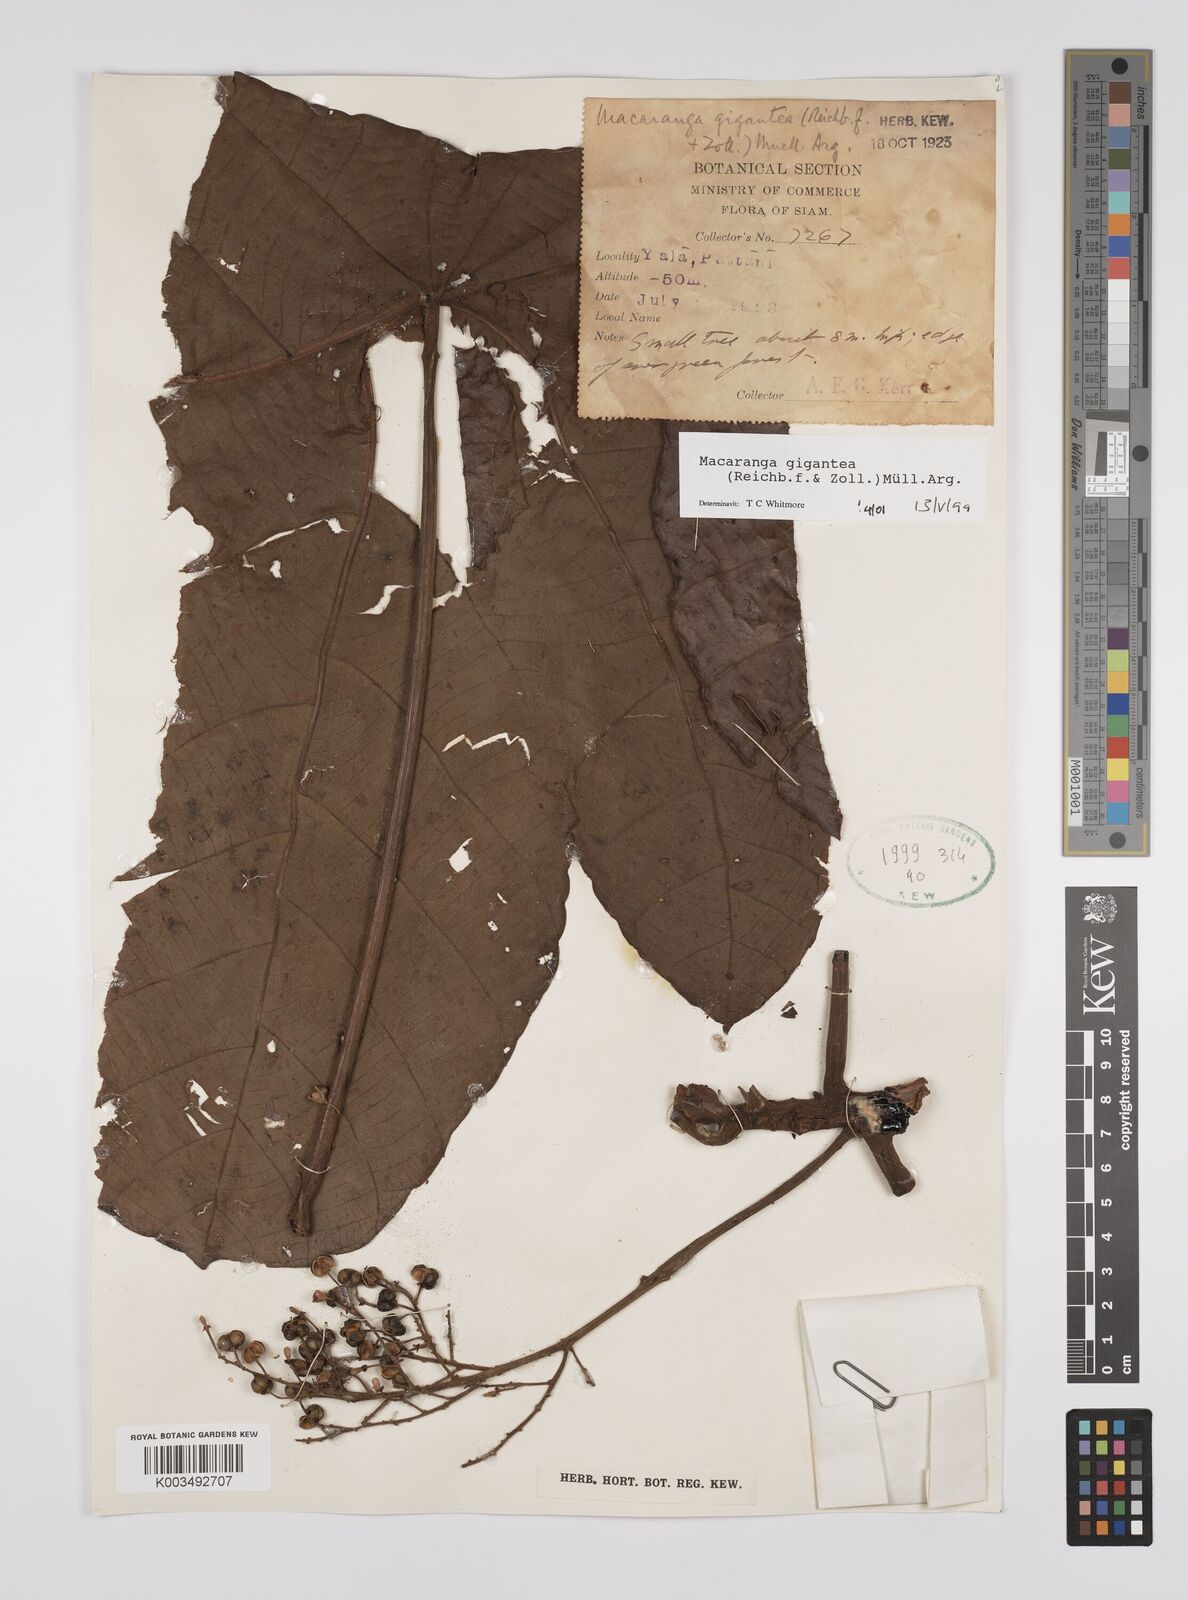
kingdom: Plantae
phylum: Tracheophyta
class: Magnoliopsida
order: Malpighiales
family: Euphorbiaceae
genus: Macaranga
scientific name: Macaranga gigantea
